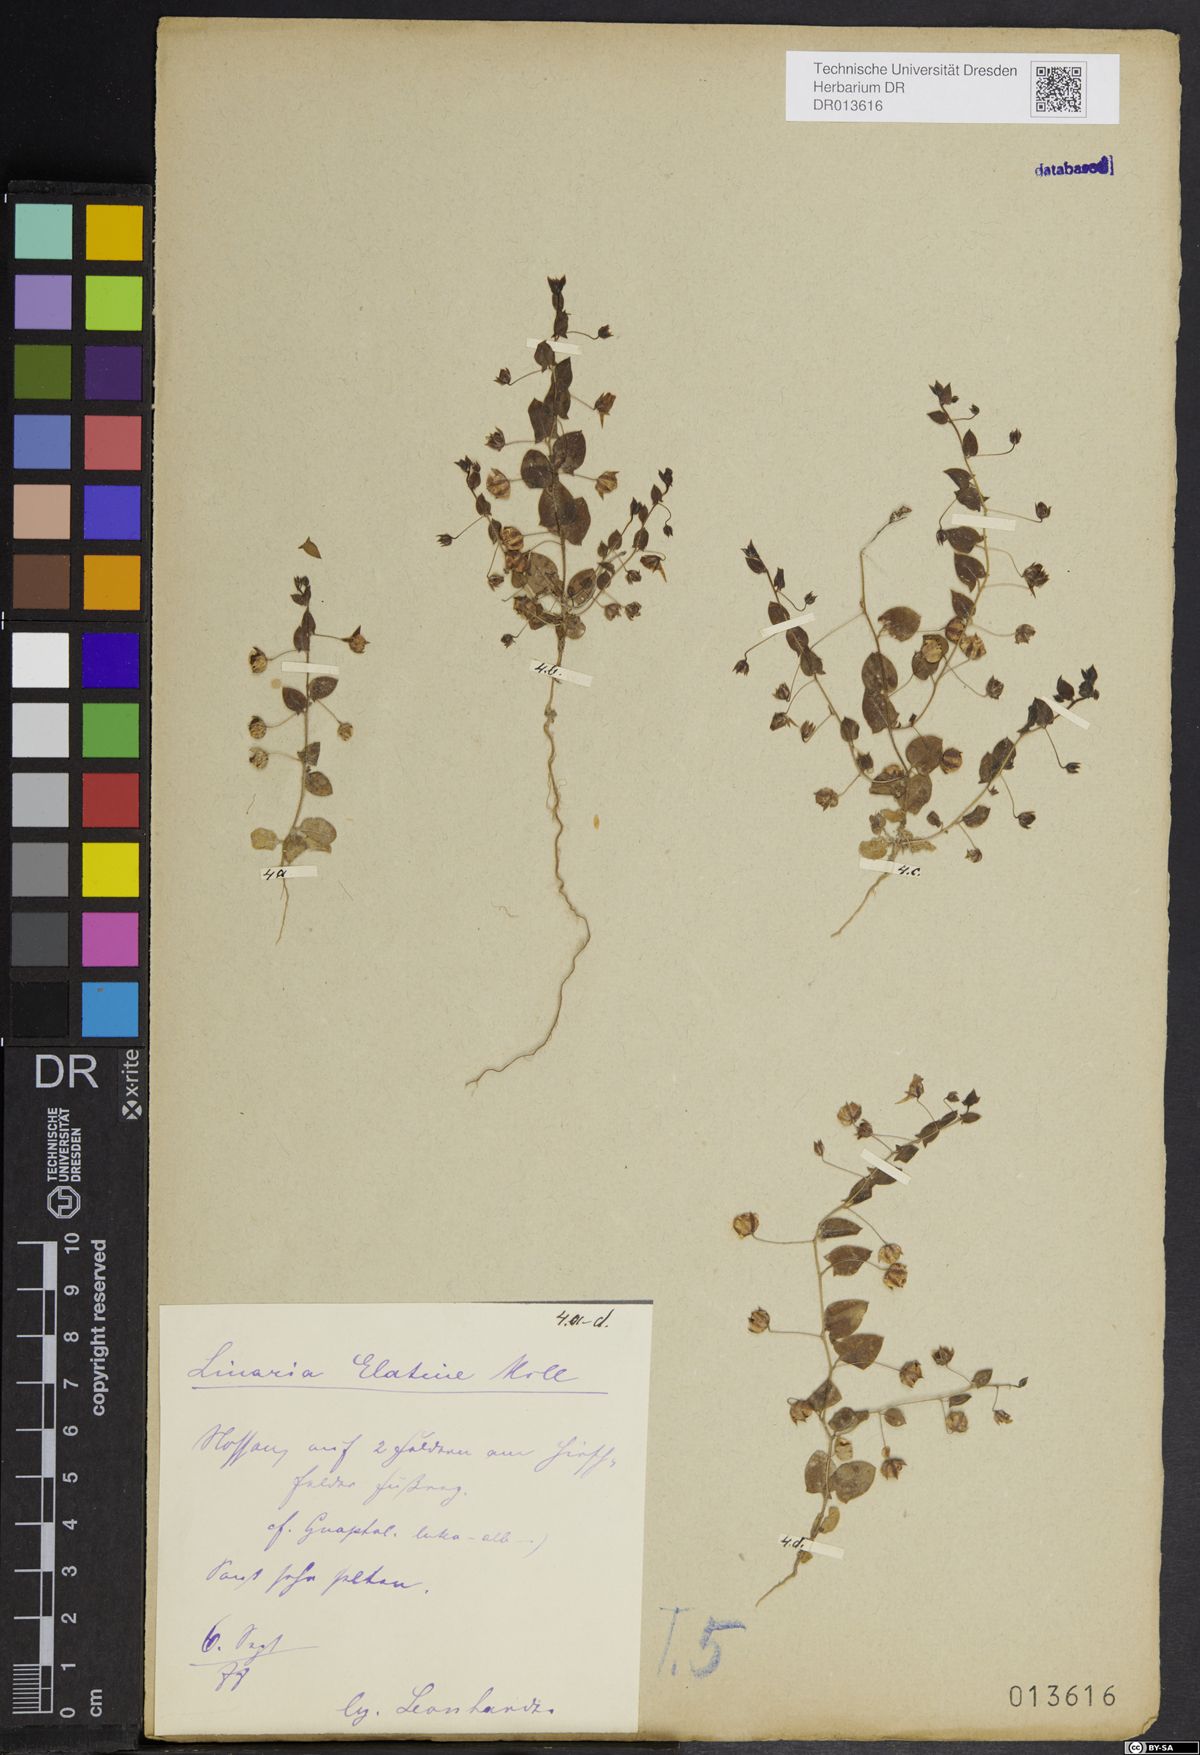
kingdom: Plantae
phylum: Tracheophyta
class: Magnoliopsida
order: Lamiales
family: Plantaginaceae
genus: Kickxia
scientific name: Kickxia elatine
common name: Sharp-leaved fluellen
